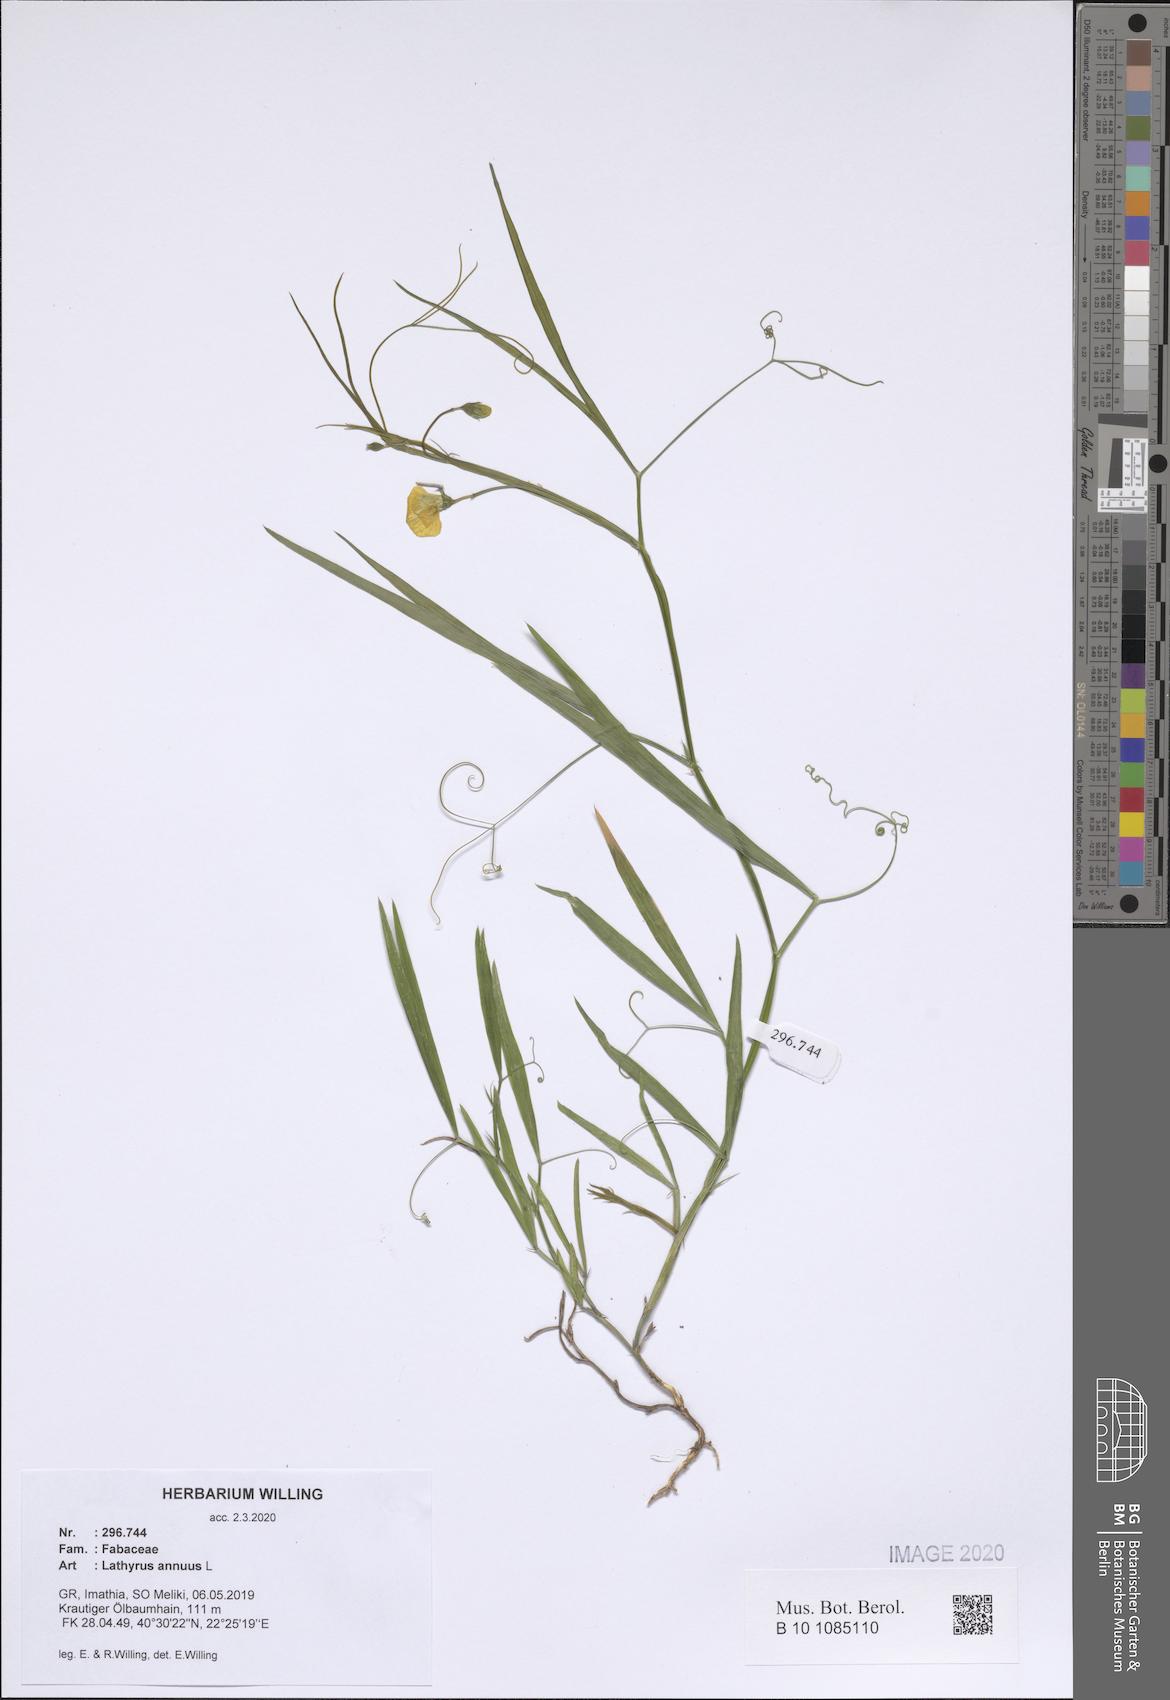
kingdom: Plantae
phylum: Tracheophyta
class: Magnoliopsida
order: Fabales
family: Fabaceae
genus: Lathyrus
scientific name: Lathyrus annuus
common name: Fodder pea
